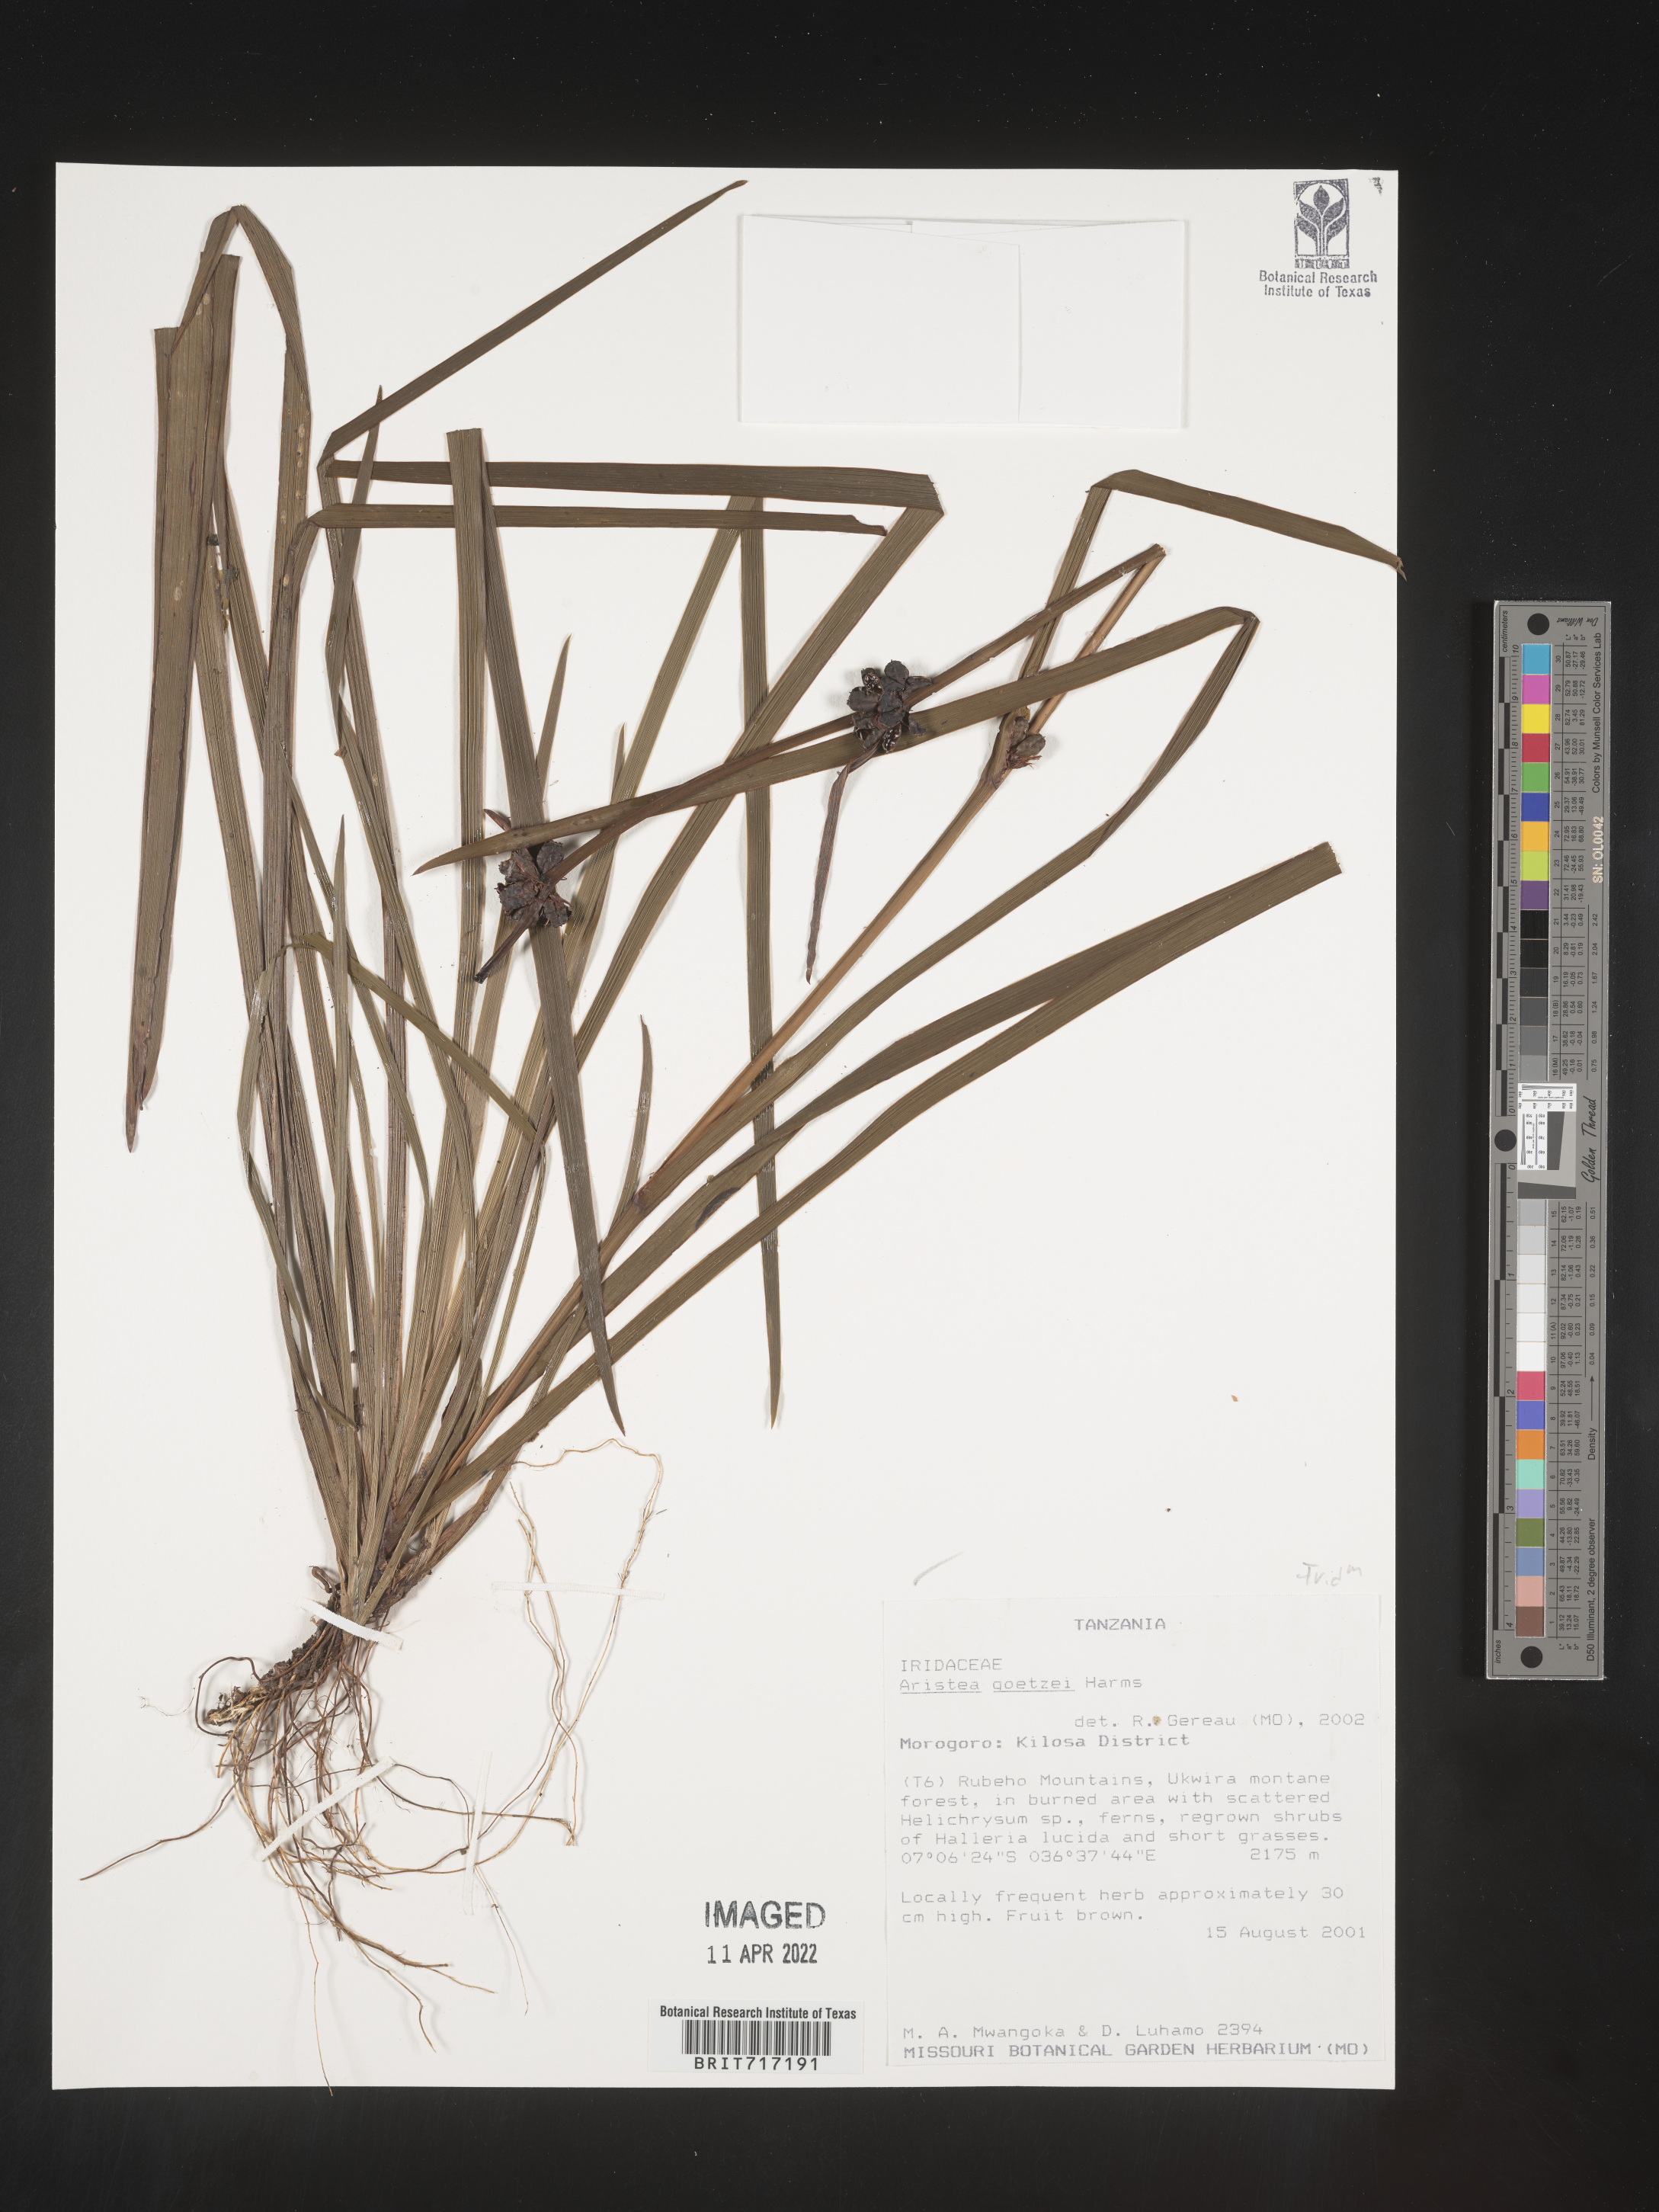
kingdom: Plantae
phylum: Tracheophyta
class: Liliopsida
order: Asparagales
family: Iridaceae
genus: Aristea
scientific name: Aristea
